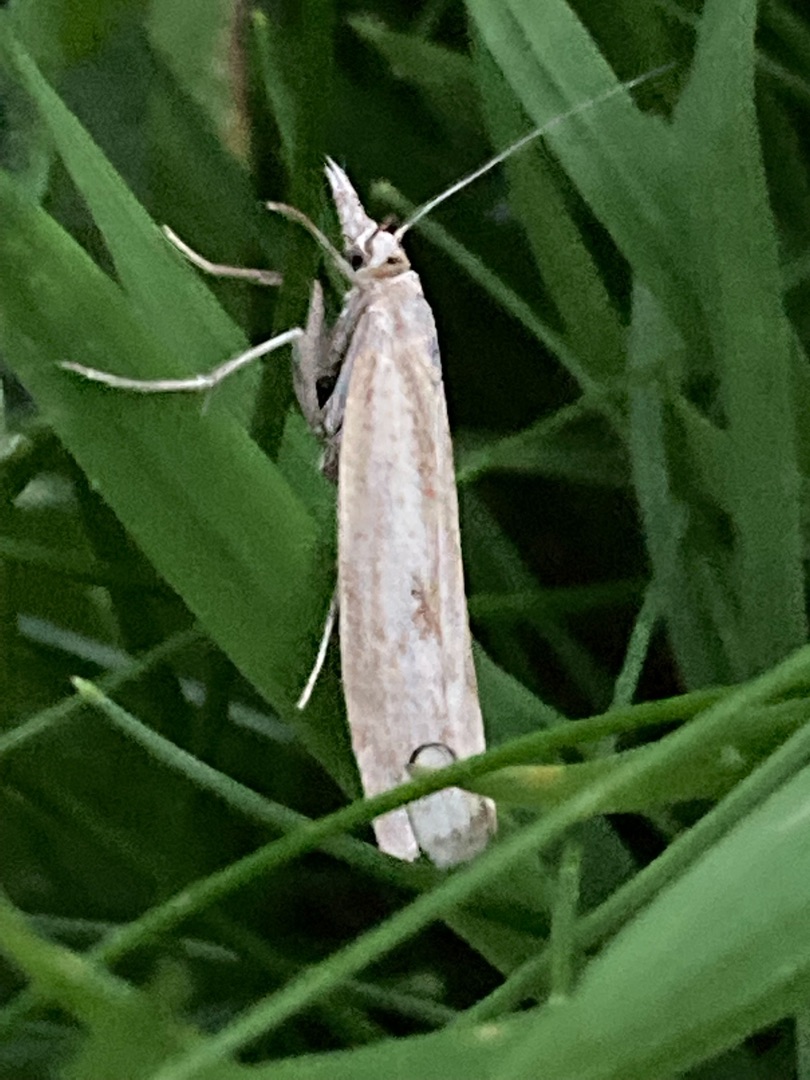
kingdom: Animalia
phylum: Arthropoda
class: Insecta
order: Lepidoptera
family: Crambidae
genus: Agriphila
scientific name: Agriphila inquinatella
